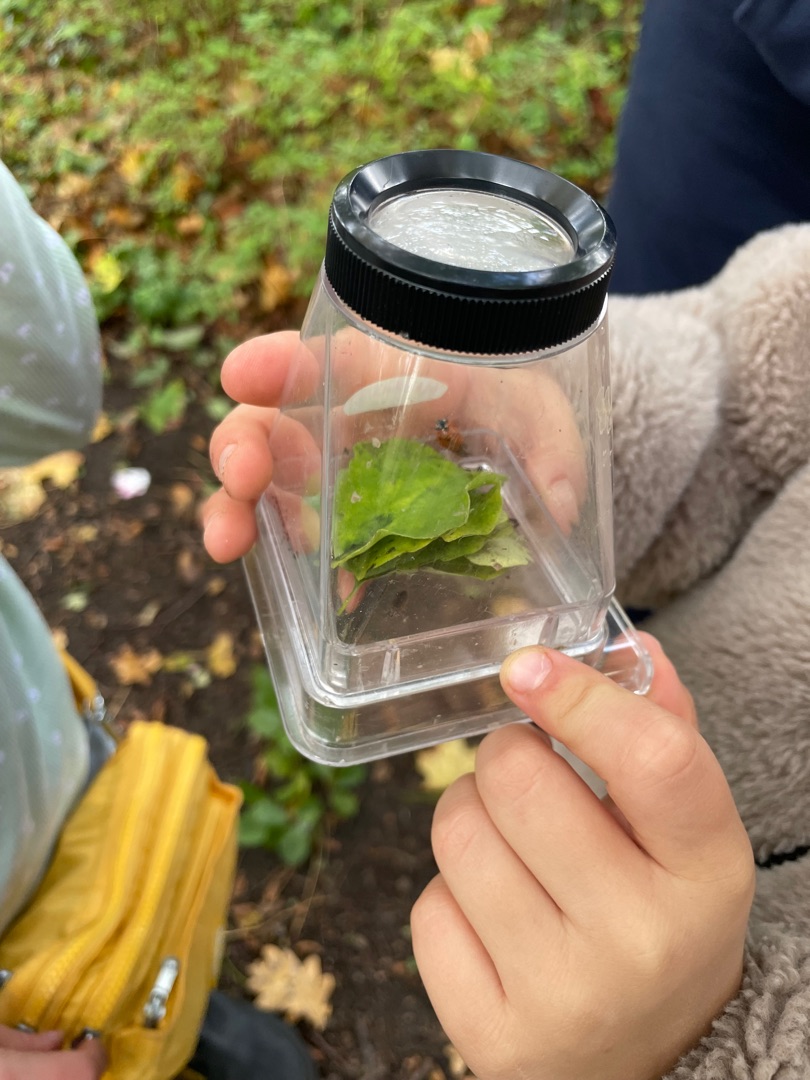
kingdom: Animalia
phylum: Arthropoda
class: Insecta
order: Coleoptera
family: Coccinellidae
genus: Coccinella
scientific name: Coccinella septempunctata
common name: Syvplettet mariehøne
